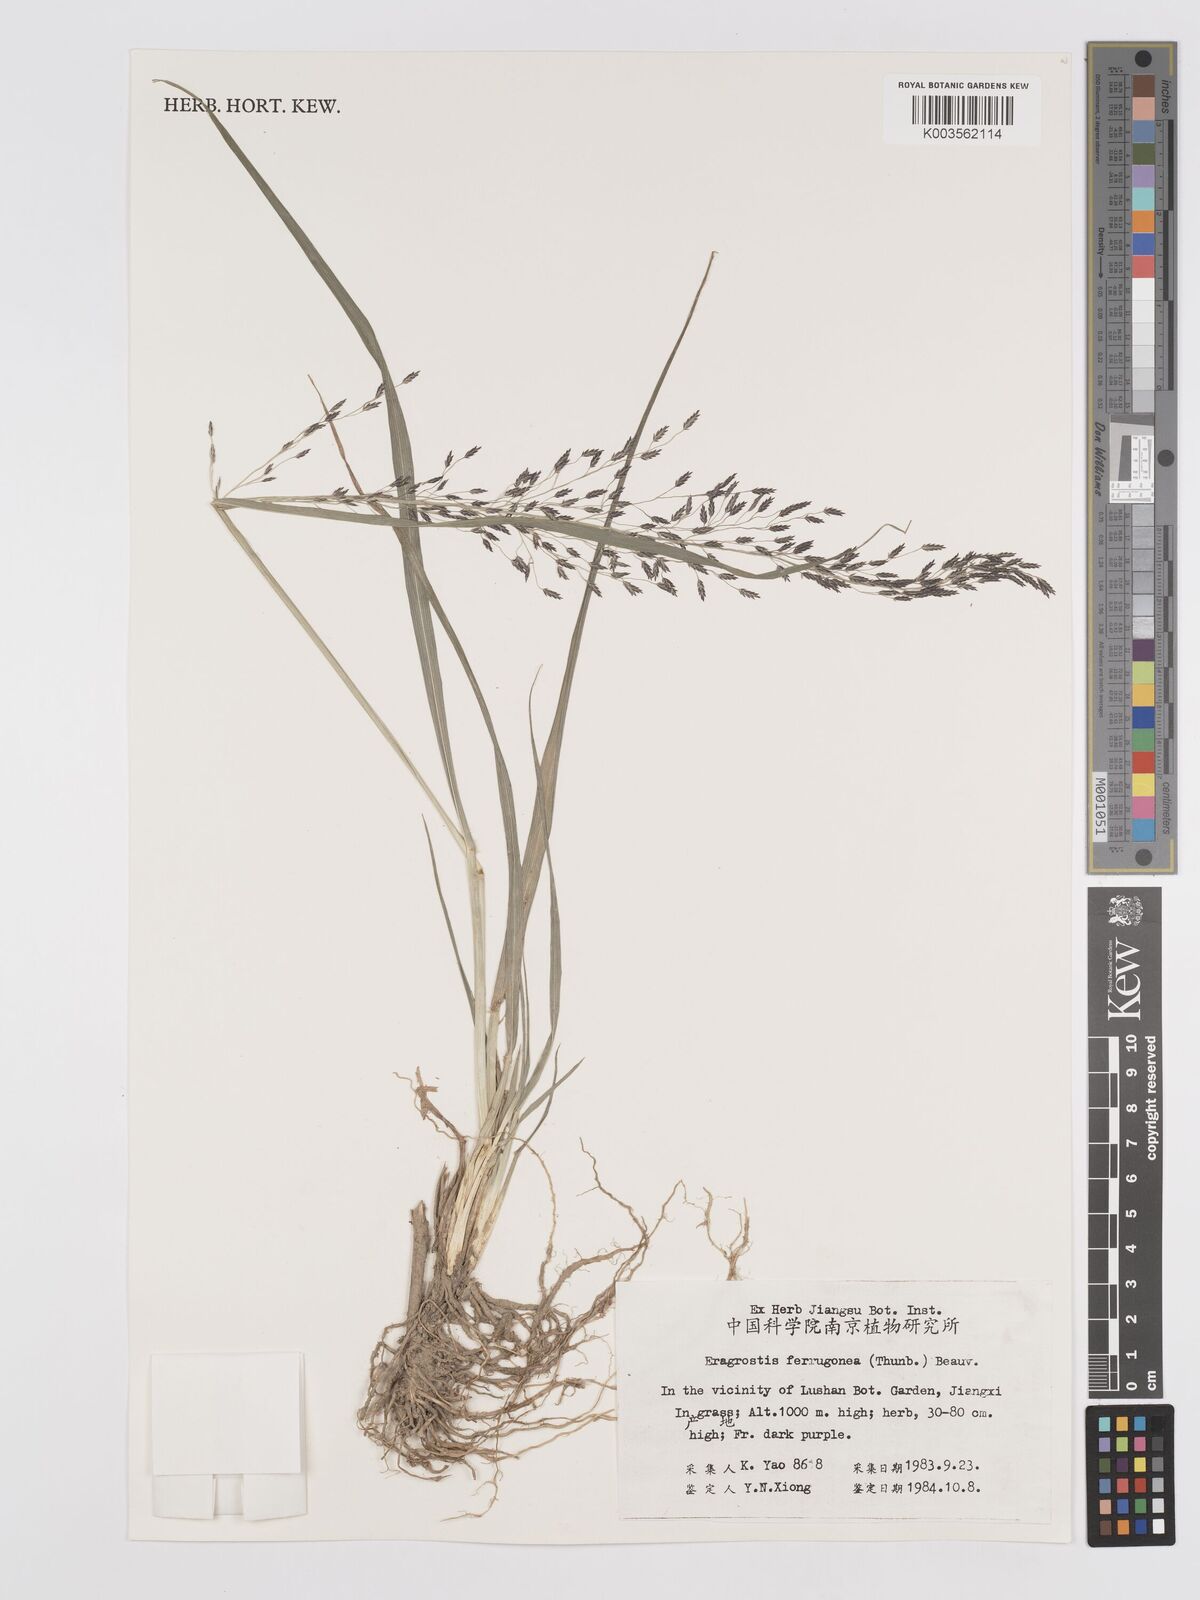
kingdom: Plantae
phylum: Tracheophyta
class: Liliopsida
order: Poales
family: Poaceae
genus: Eragrostis
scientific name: Eragrostis ferruginea
